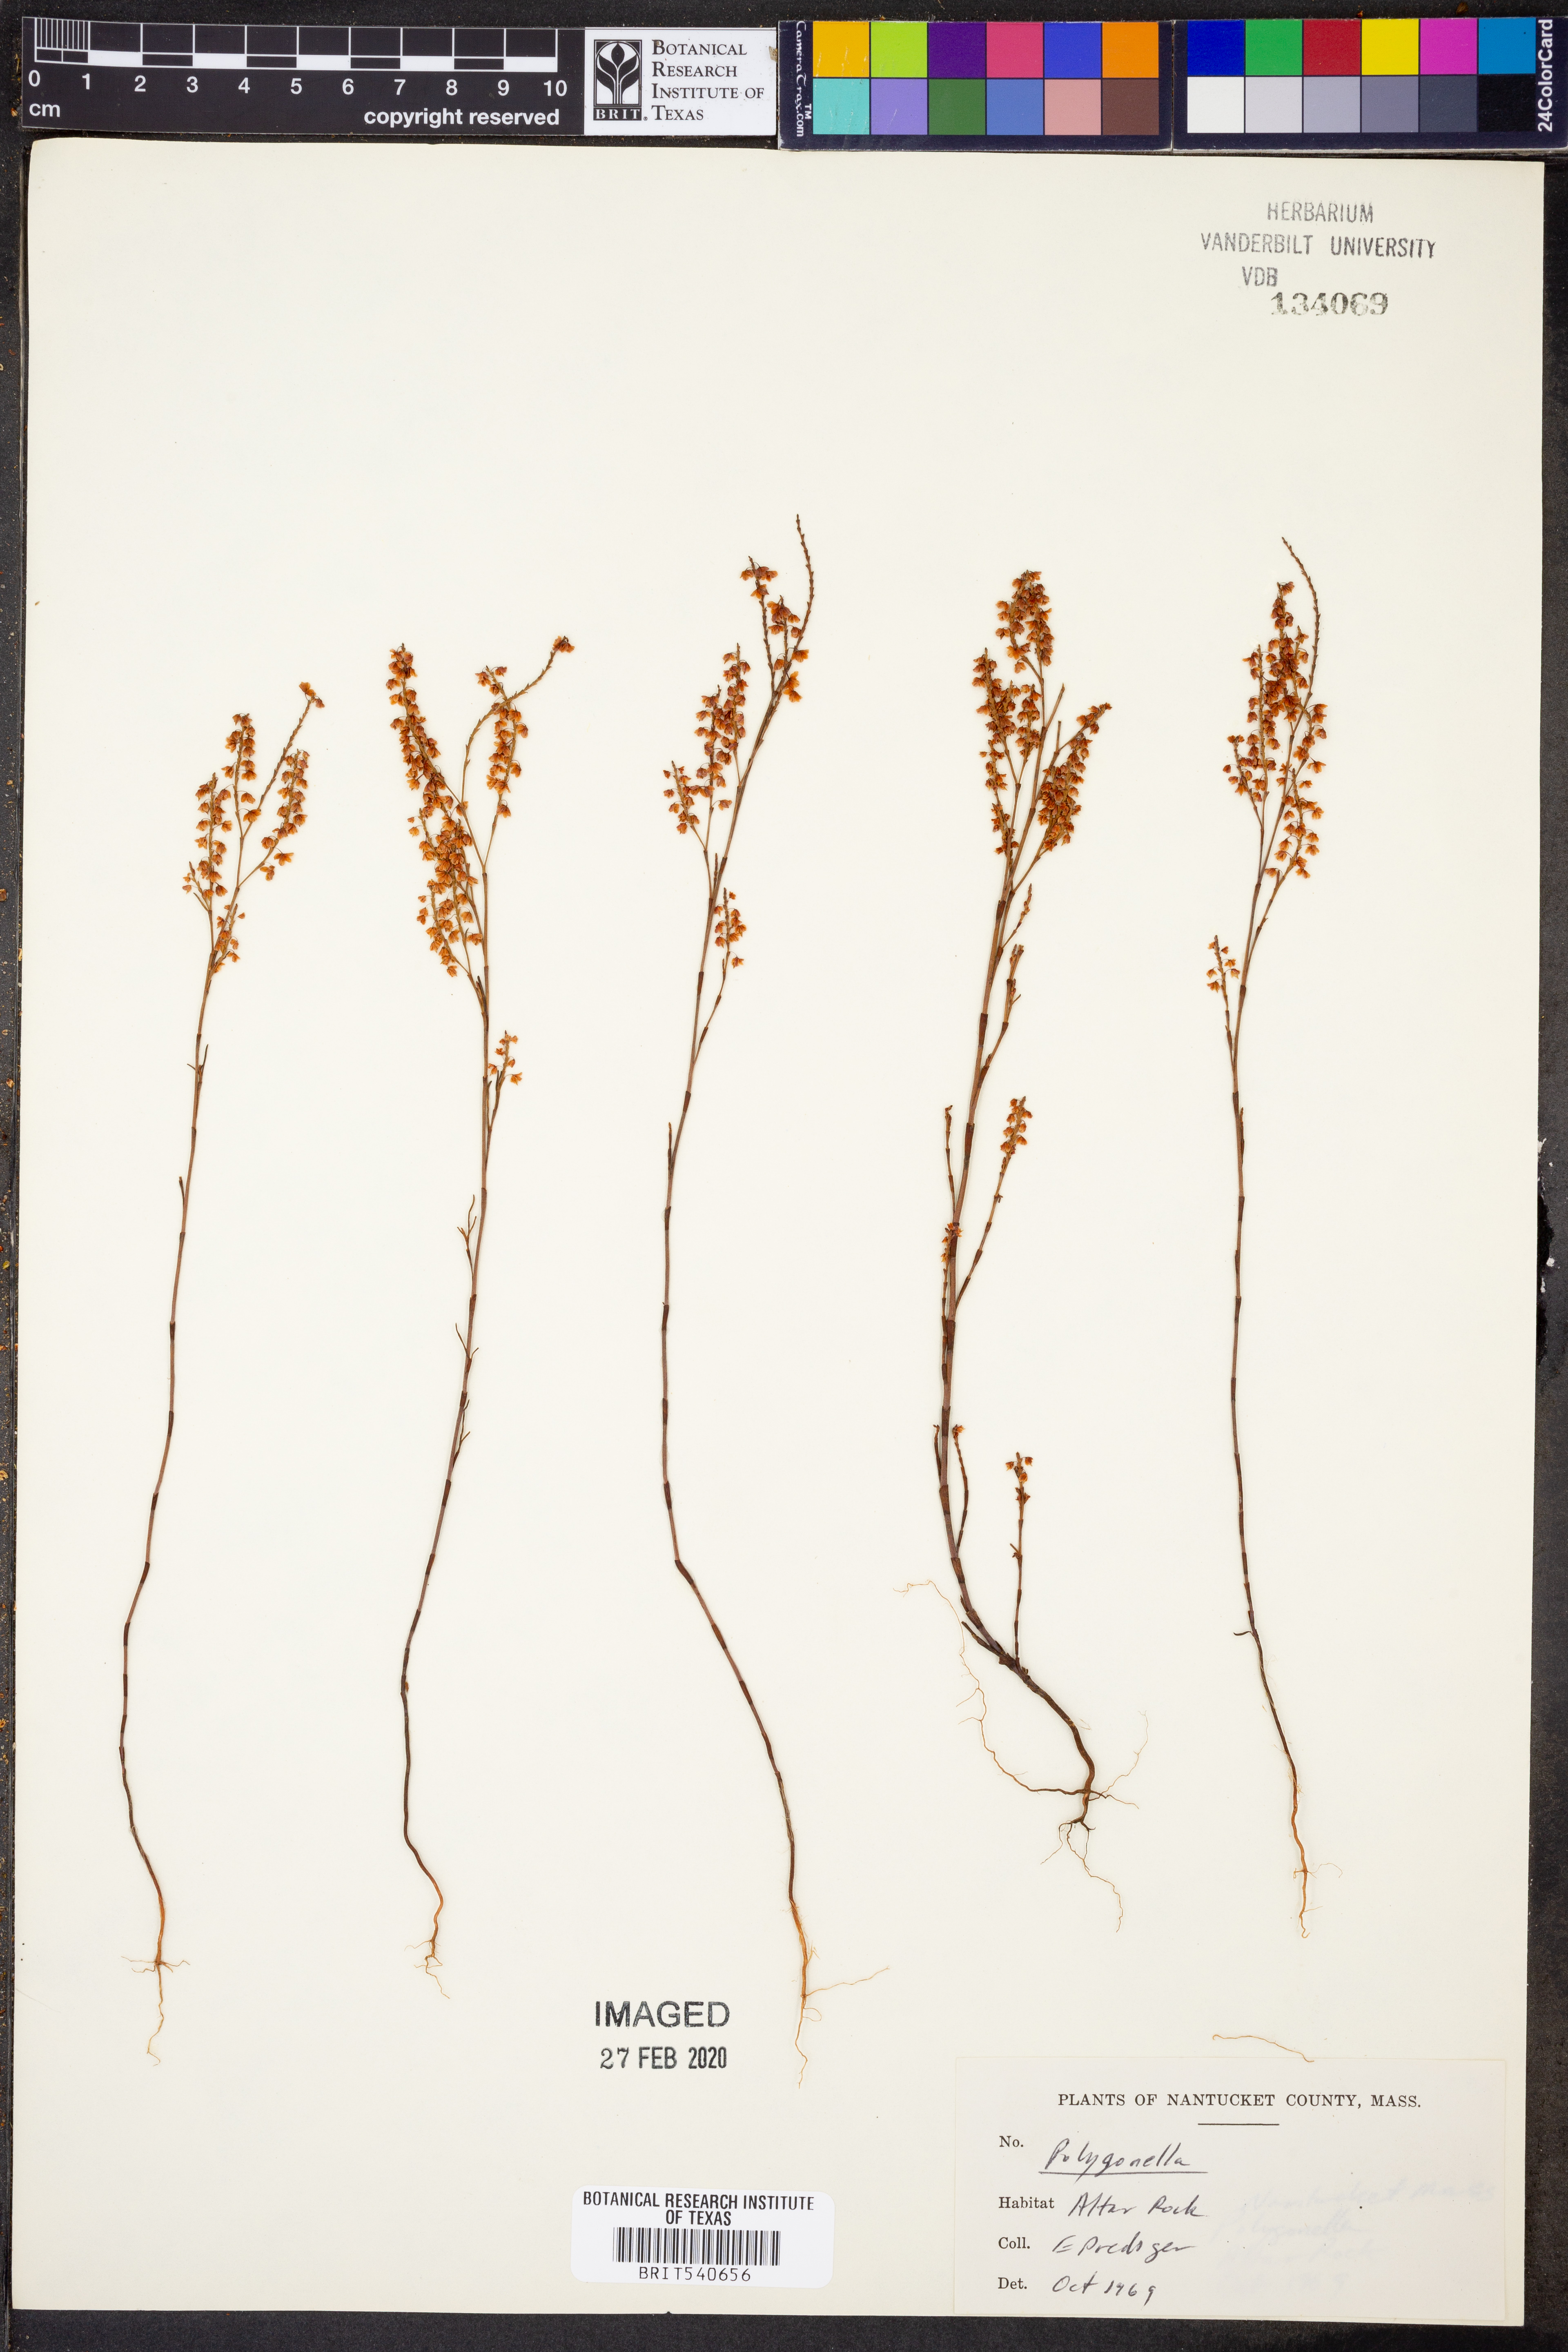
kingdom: Plantae
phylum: Tracheophyta
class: Magnoliopsida
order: Caryophyllales
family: Polygonaceae
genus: Polygonella
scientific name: Polygonella
